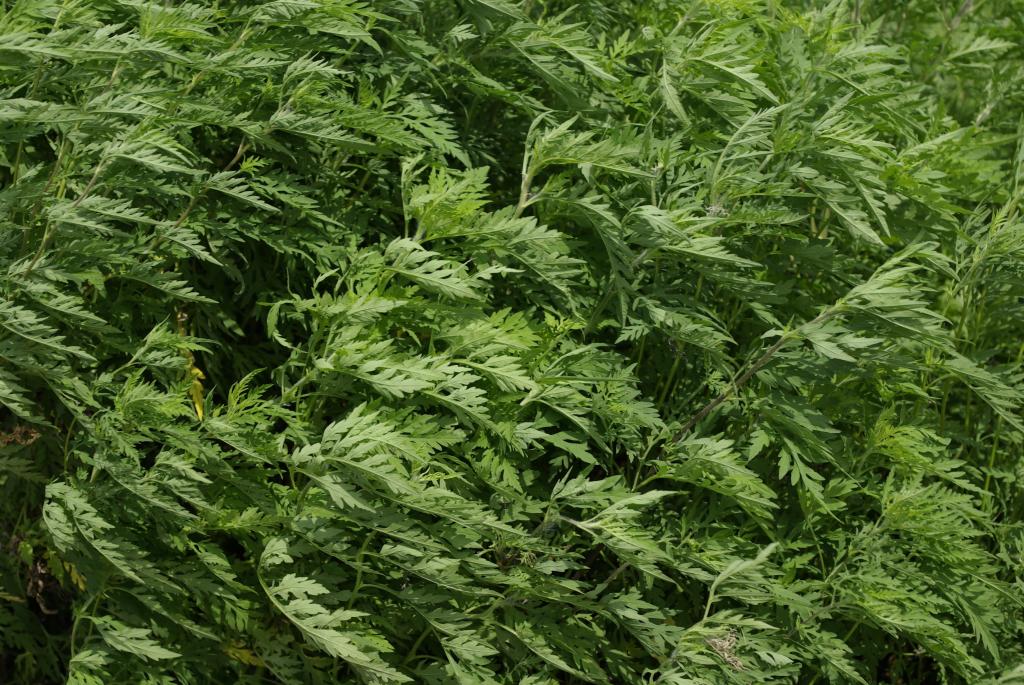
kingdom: Plantae
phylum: Tracheophyta
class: Magnoliopsida
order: Asterales
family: Asteraceae
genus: Ambrosia
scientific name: Ambrosia artemisiifolia
